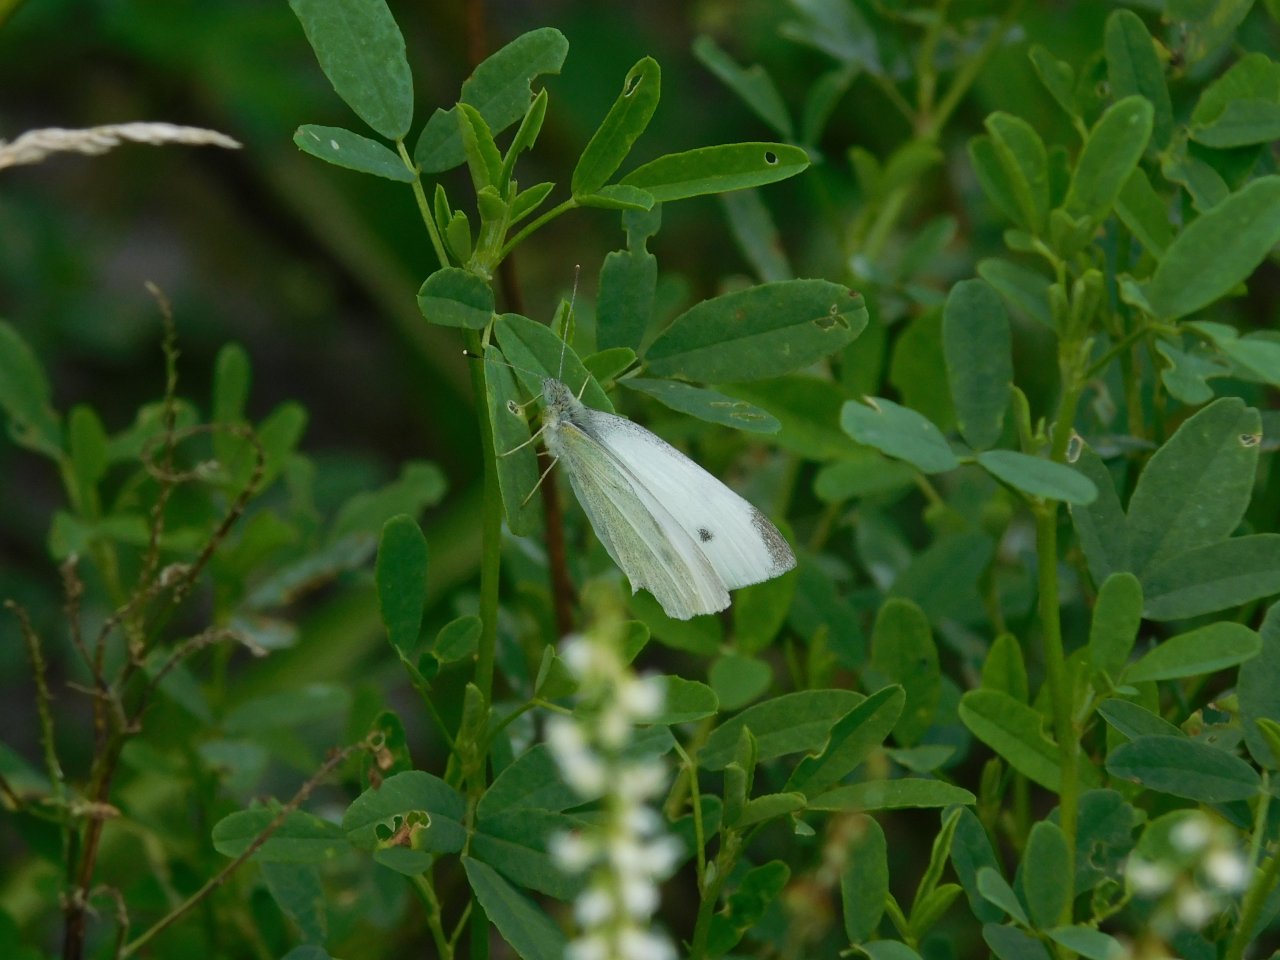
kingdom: Animalia
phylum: Arthropoda
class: Insecta
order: Lepidoptera
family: Pieridae
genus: Pieris
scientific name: Pieris rapae
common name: Cabbage White
